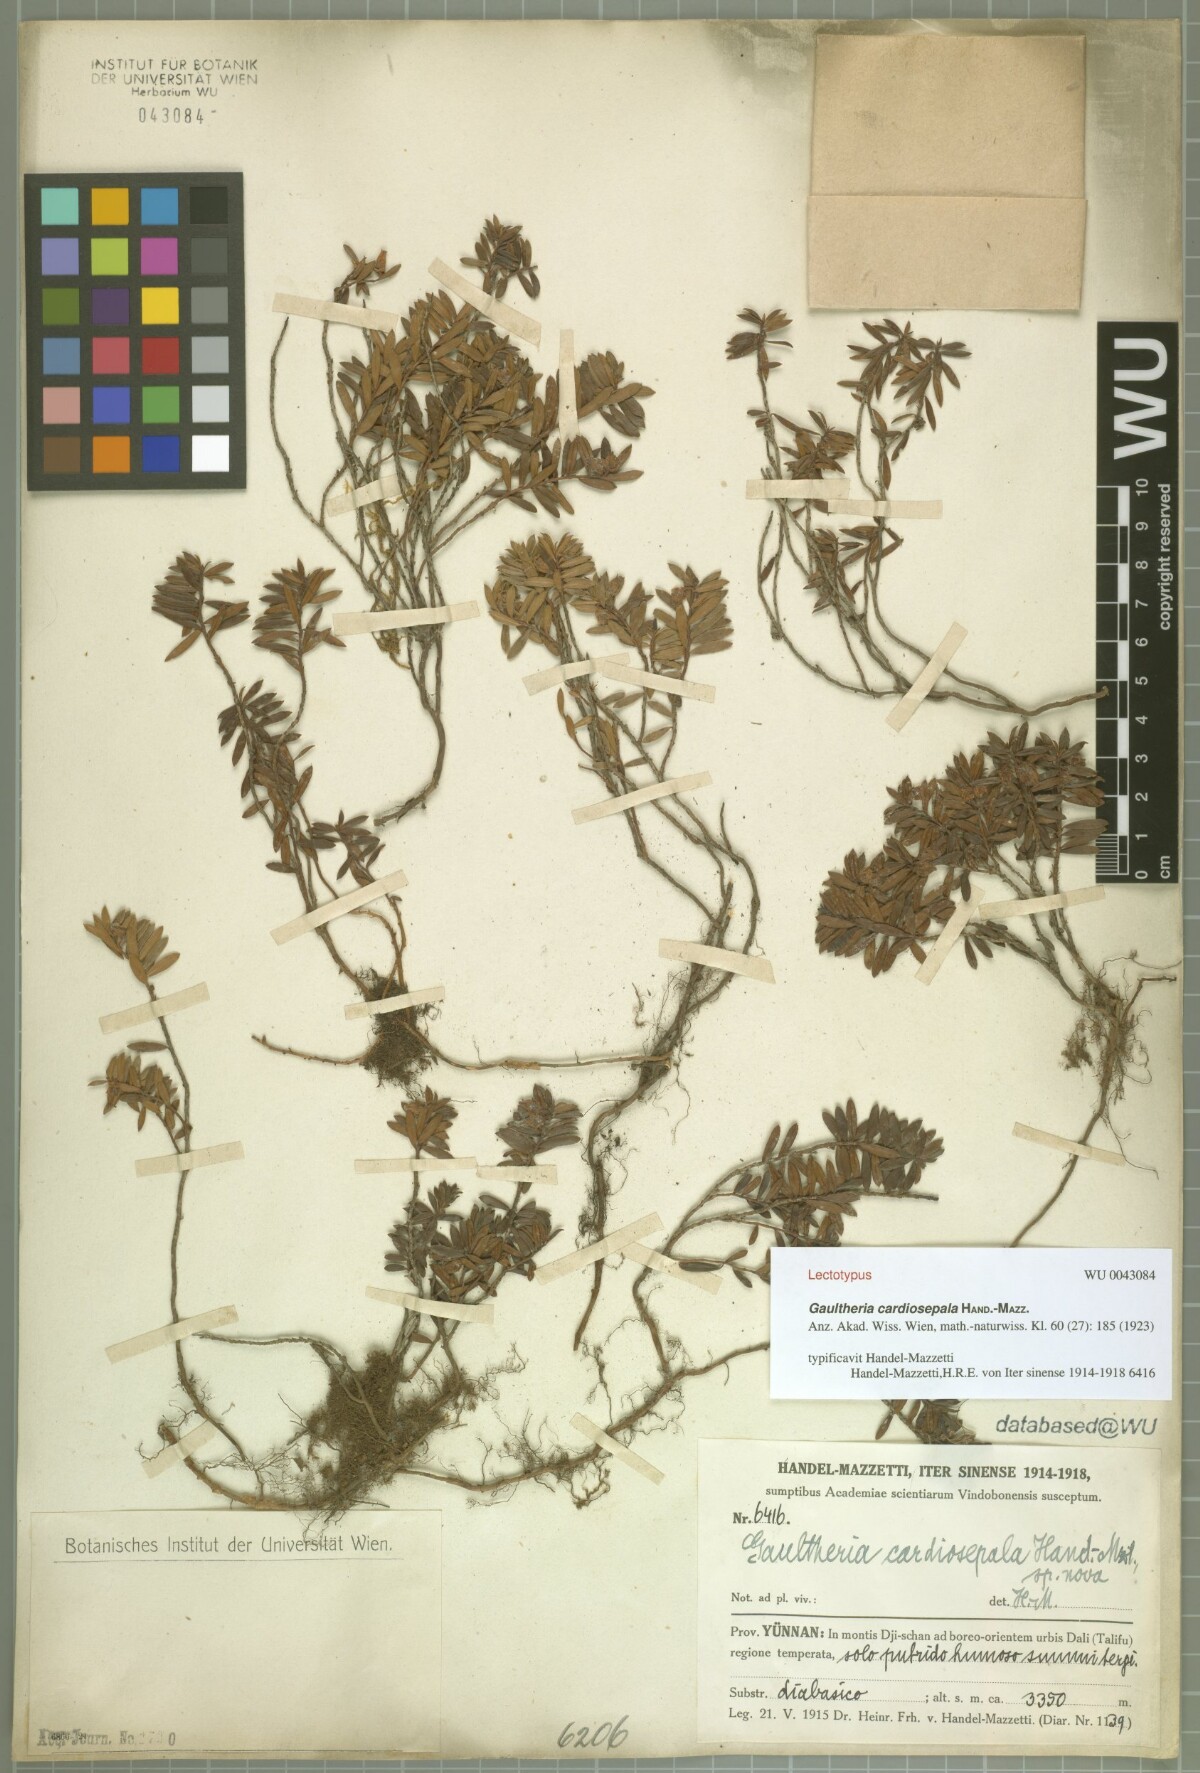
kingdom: Plantae
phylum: Tracheophyta
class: Magnoliopsida
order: Ericales
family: Ericaceae
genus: Gaultheria
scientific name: Gaultheria cardiosepala
